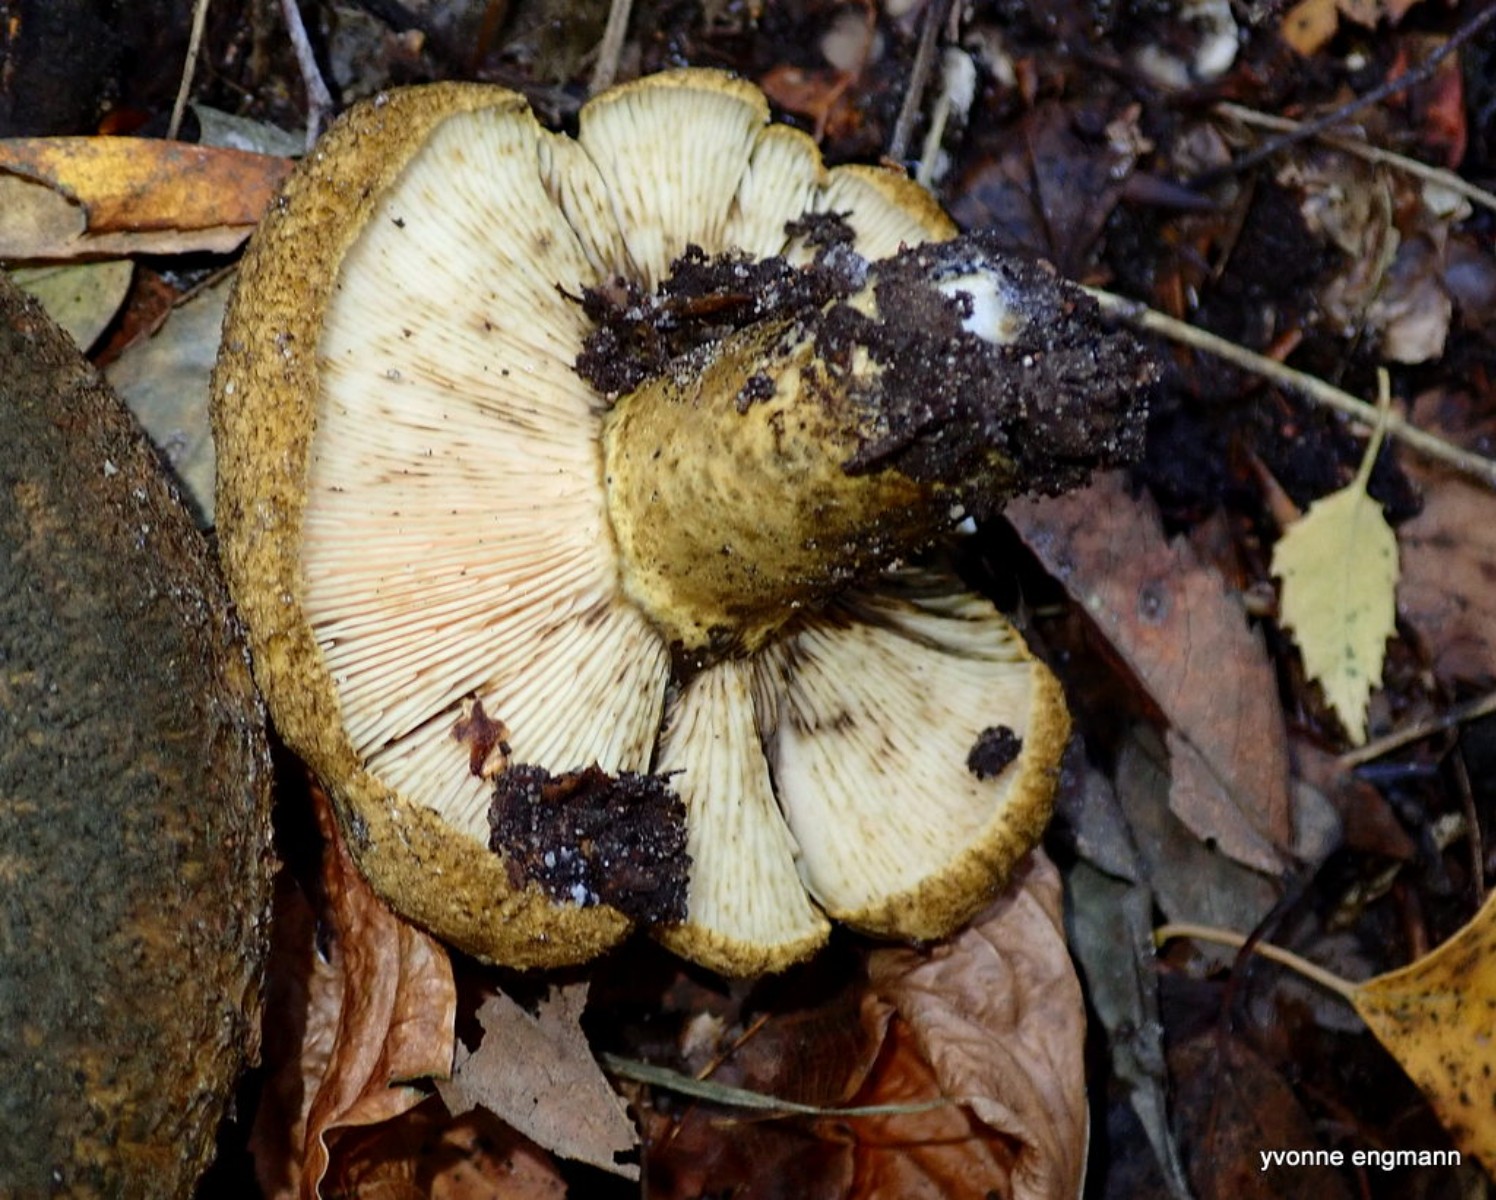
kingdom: Fungi
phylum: Basidiomycota
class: Agaricomycetes
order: Russulales
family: Russulaceae
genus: Lactarius
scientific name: Lactarius necator
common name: manddraber-mælkehat
